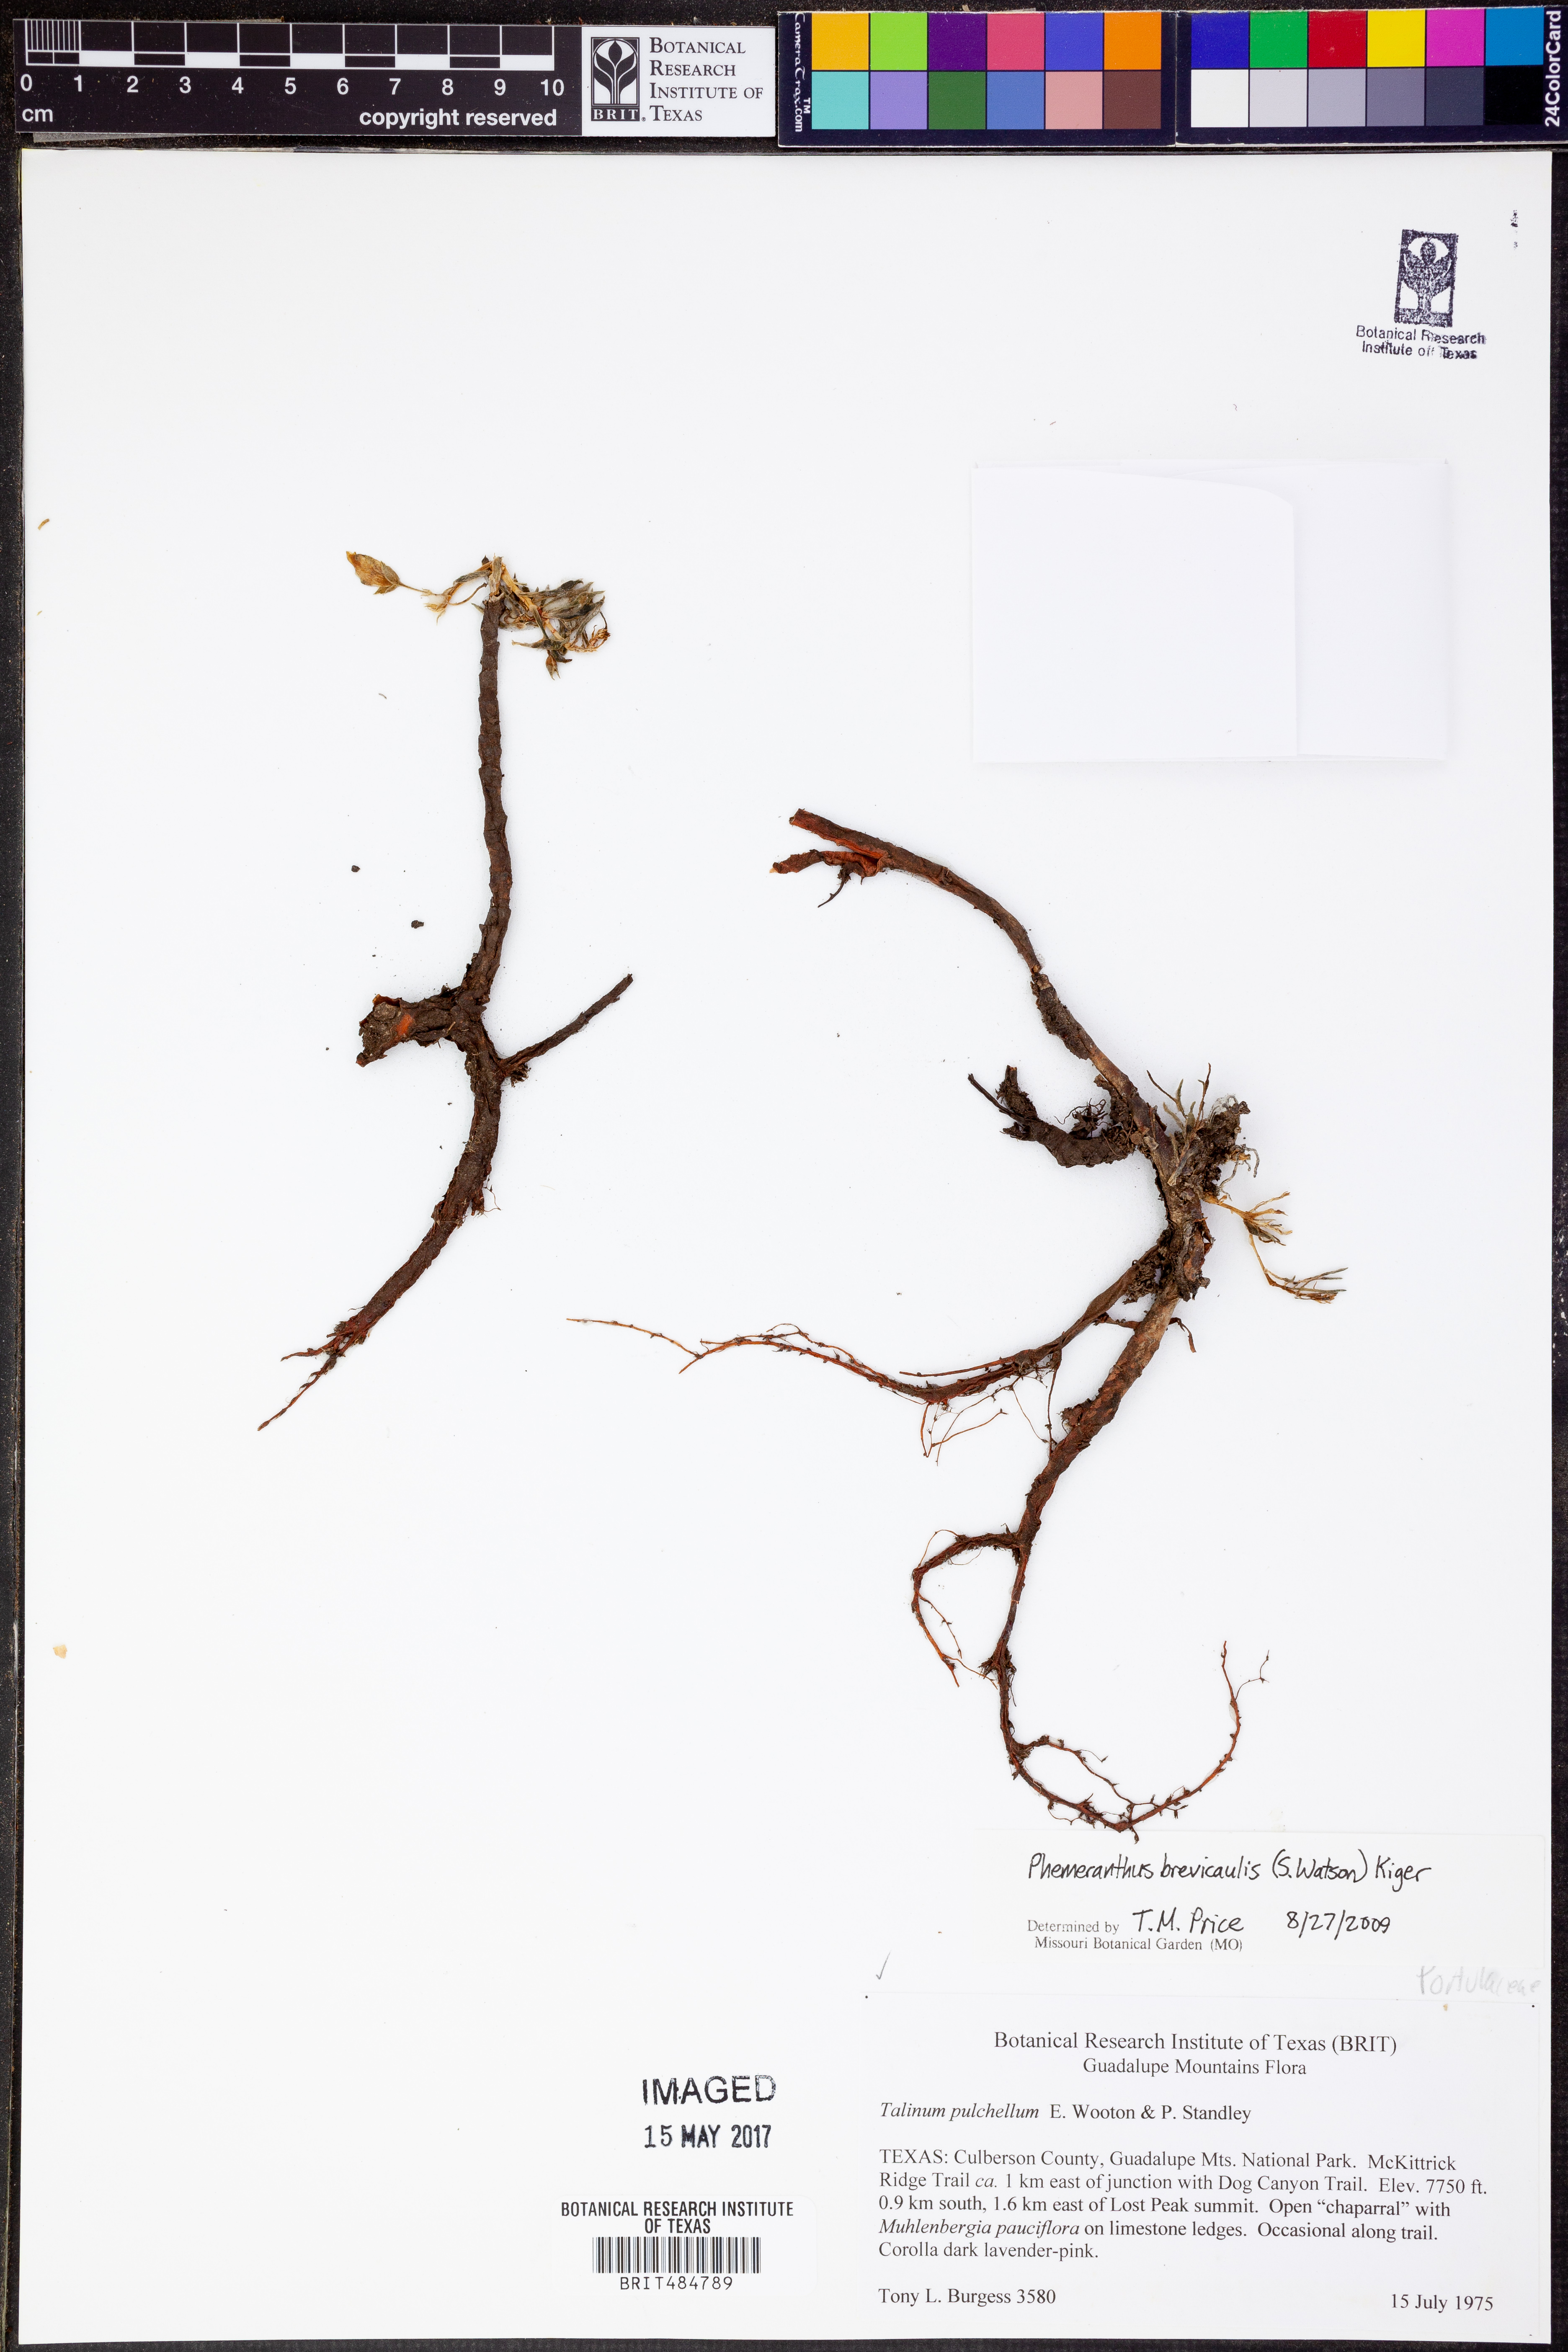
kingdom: Plantae
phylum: Tracheophyta
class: Magnoliopsida
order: Caryophyllales
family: Montiaceae
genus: Phemeranthus
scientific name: Phemeranthus brevicaulis
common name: Dwarf fameflower
